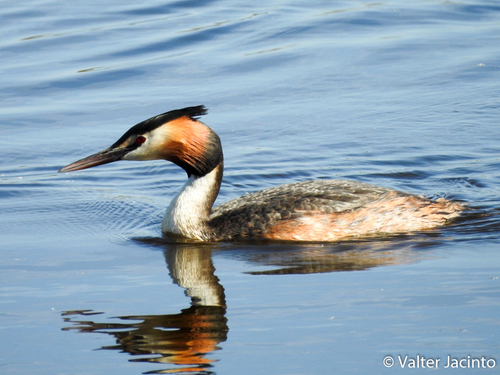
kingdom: Animalia
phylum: Chordata
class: Aves
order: Podicipediformes
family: Podicipedidae
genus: Podiceps
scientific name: Podiceps cristatus
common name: Great crested grebe
